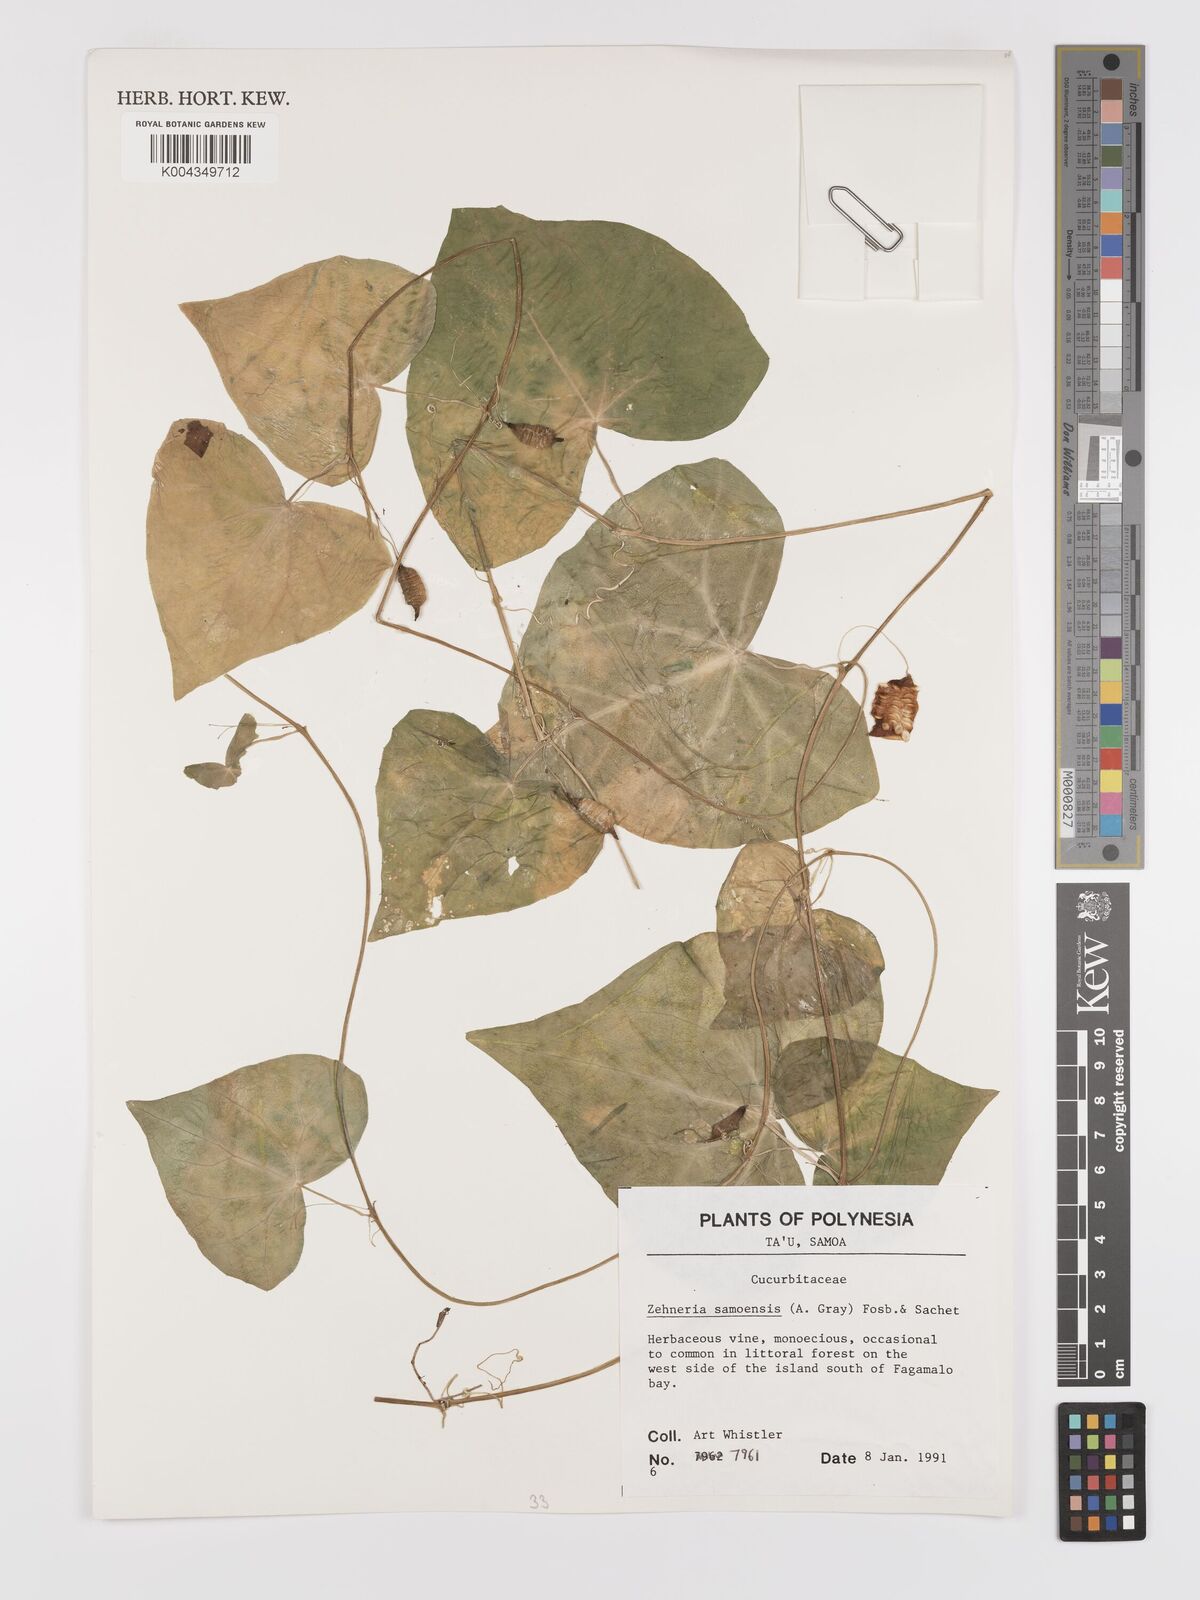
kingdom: Plantae
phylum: Tracheophyta
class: Magnoliopsida
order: Cucurbitales
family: Cucurbitaceae
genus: Zehneria
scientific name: Zehneria mucronata
